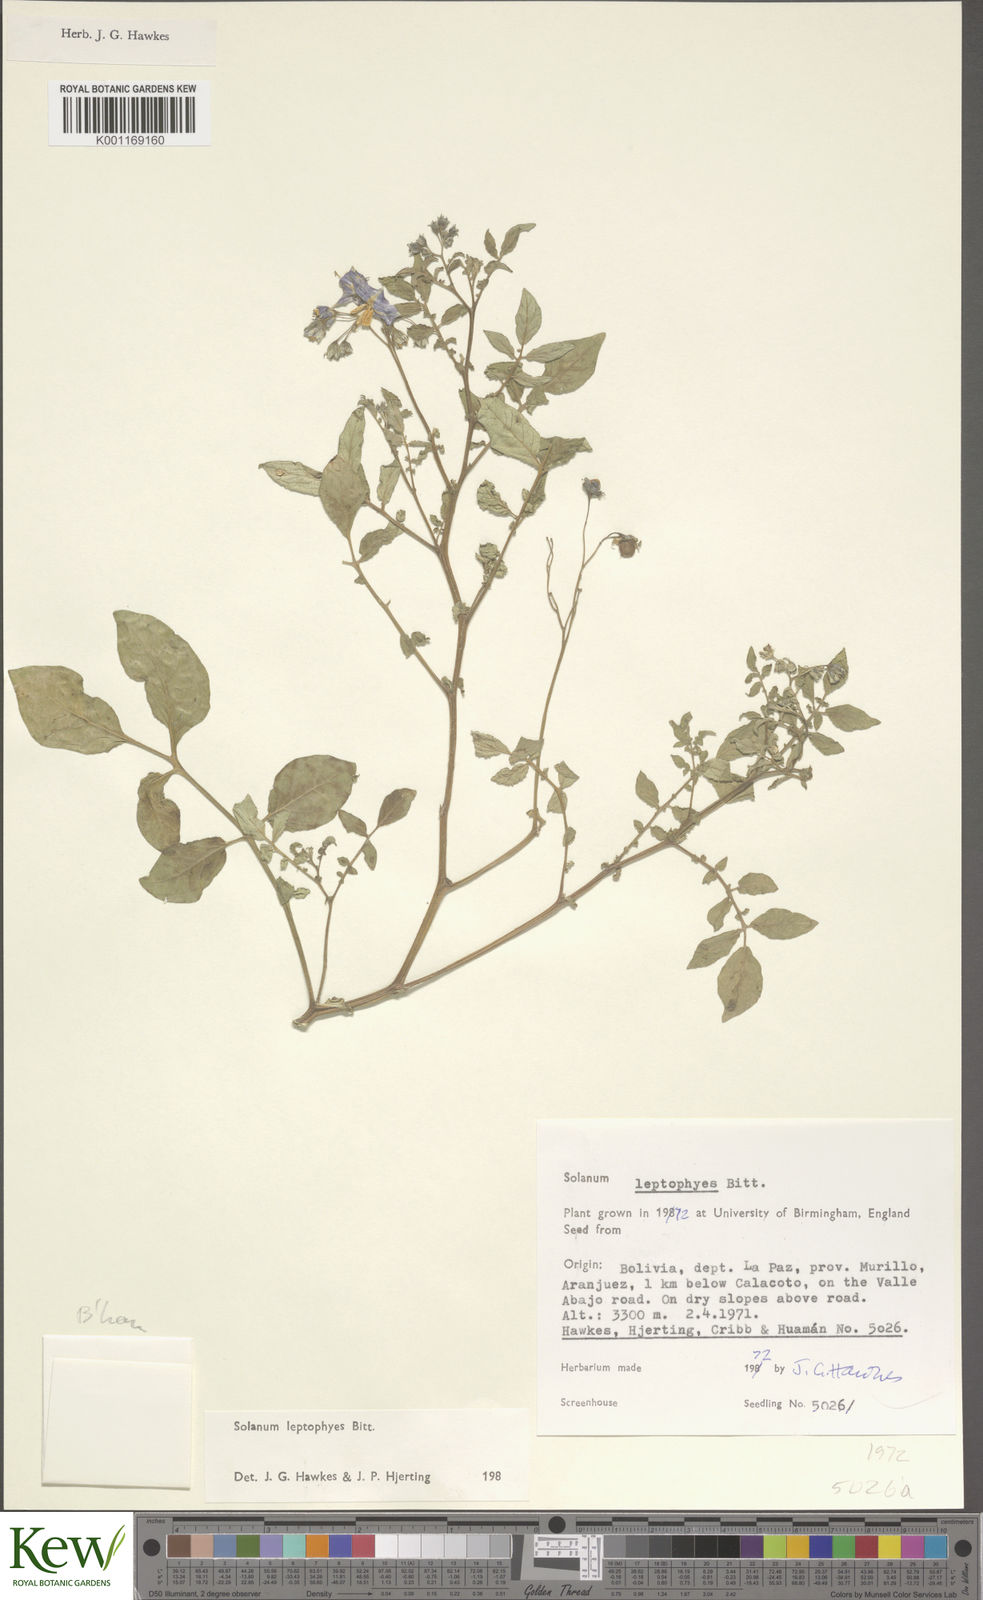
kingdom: Plantae
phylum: Tracheophyta
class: Magnoliopsida
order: Solanales
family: Solanaceae
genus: Solanum
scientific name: Solanum brevicaule
